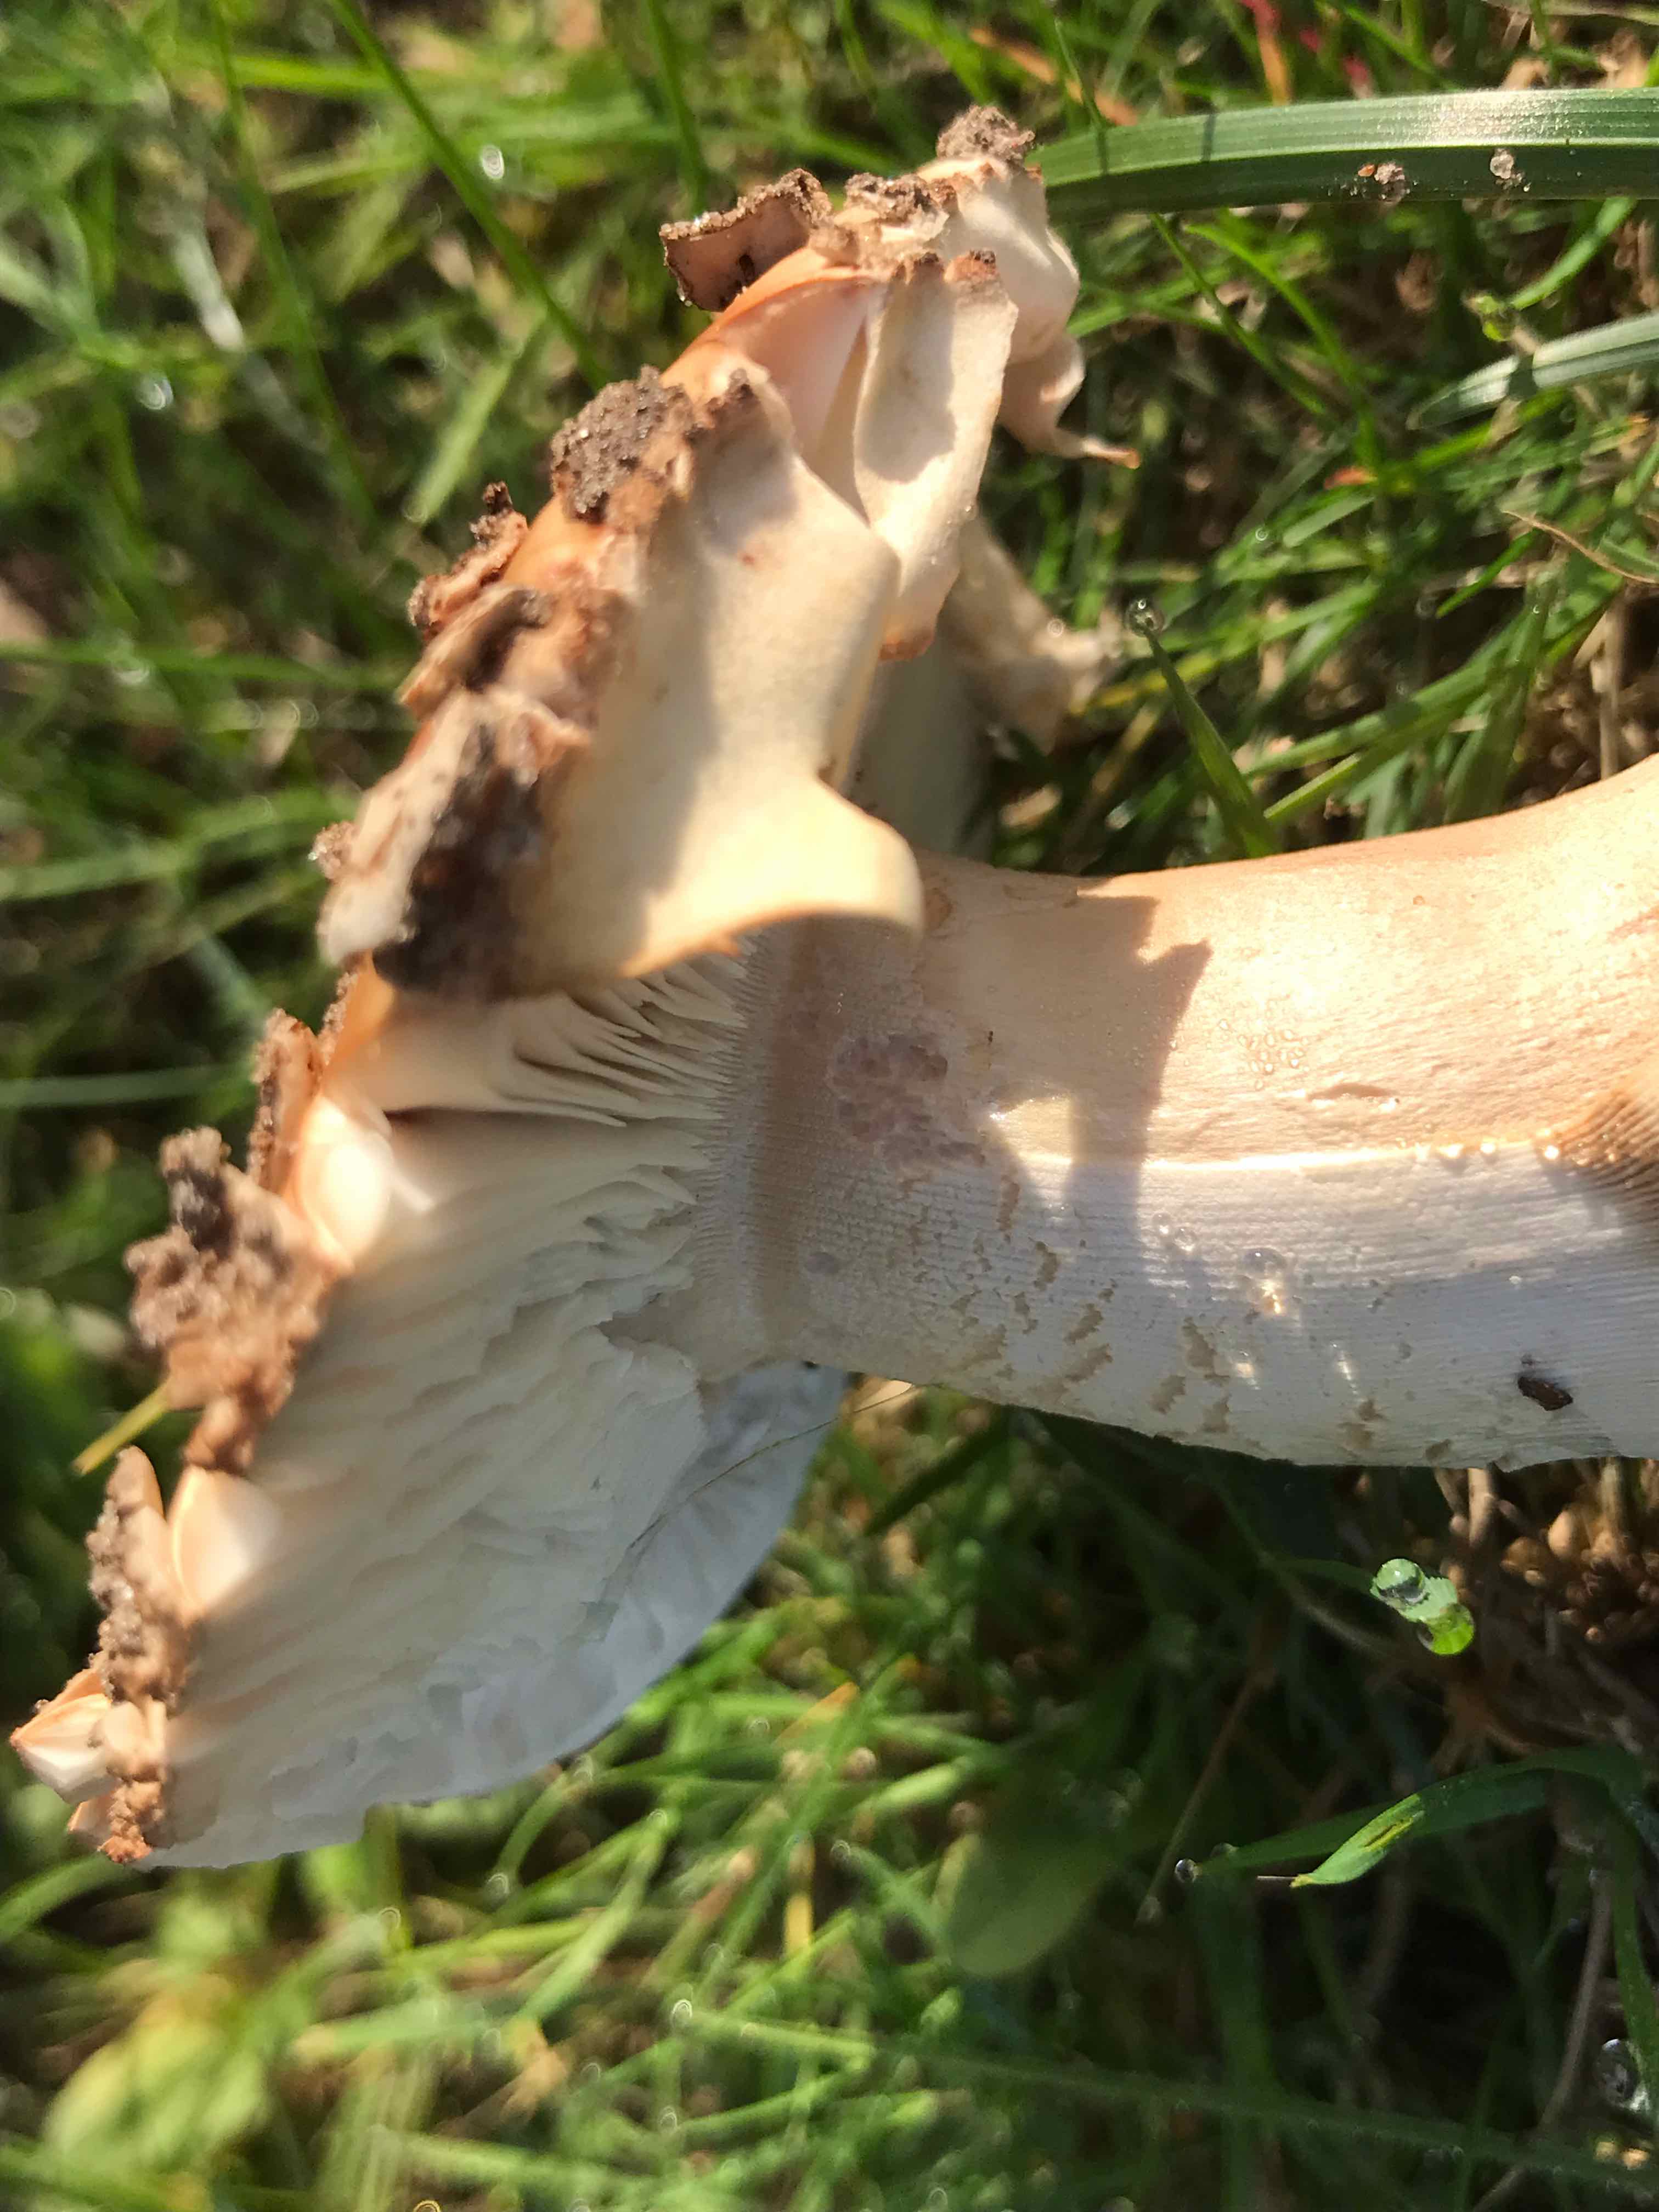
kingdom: Fungi
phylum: Basidiomycota
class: Agaricomycetes
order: Agaricales
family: Amanitaceae
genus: Amanita
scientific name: Amanita rubescens
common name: rødmende fluesvamp
